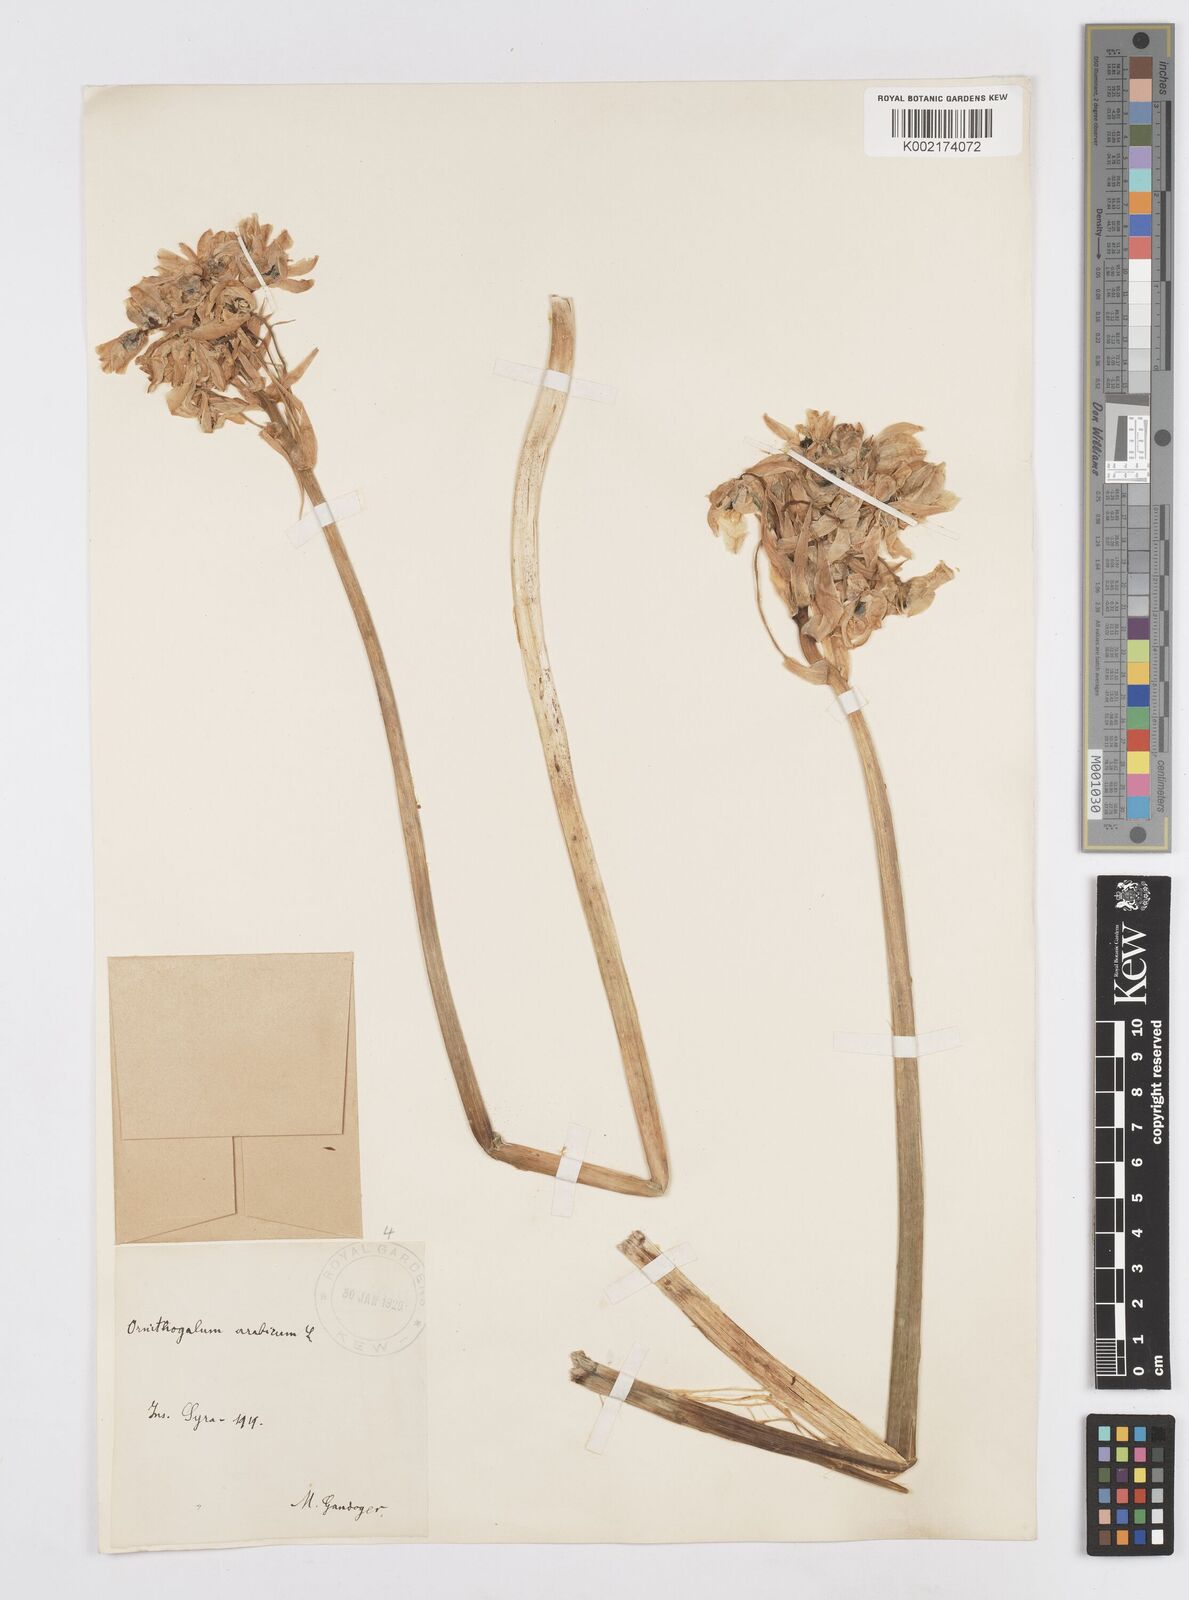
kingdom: Plantae
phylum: Tracheophyta
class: Liliopsida
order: Asparagales
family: Asparagaceae
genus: Ornithogalum
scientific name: Ornithogalum arabicum
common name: Arabian starflower
